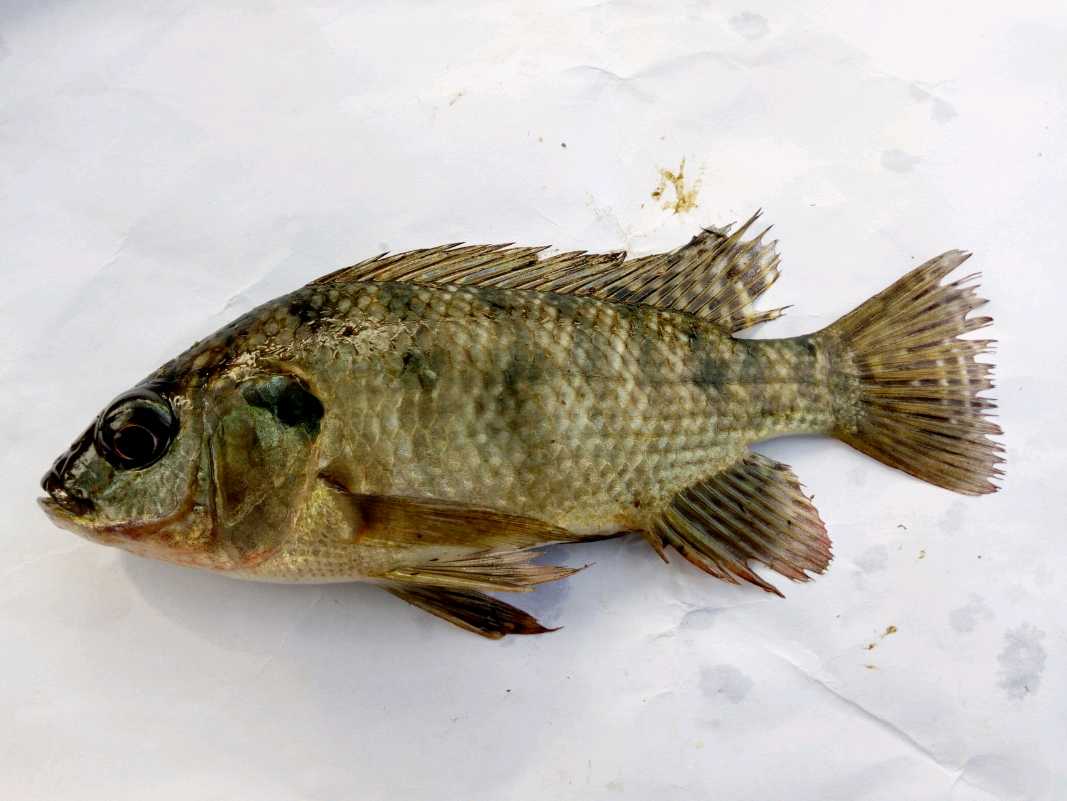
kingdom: Animalia
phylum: Chordata
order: Perciformes
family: Cichlidae
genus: Oreochromis
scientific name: Oreochromis
